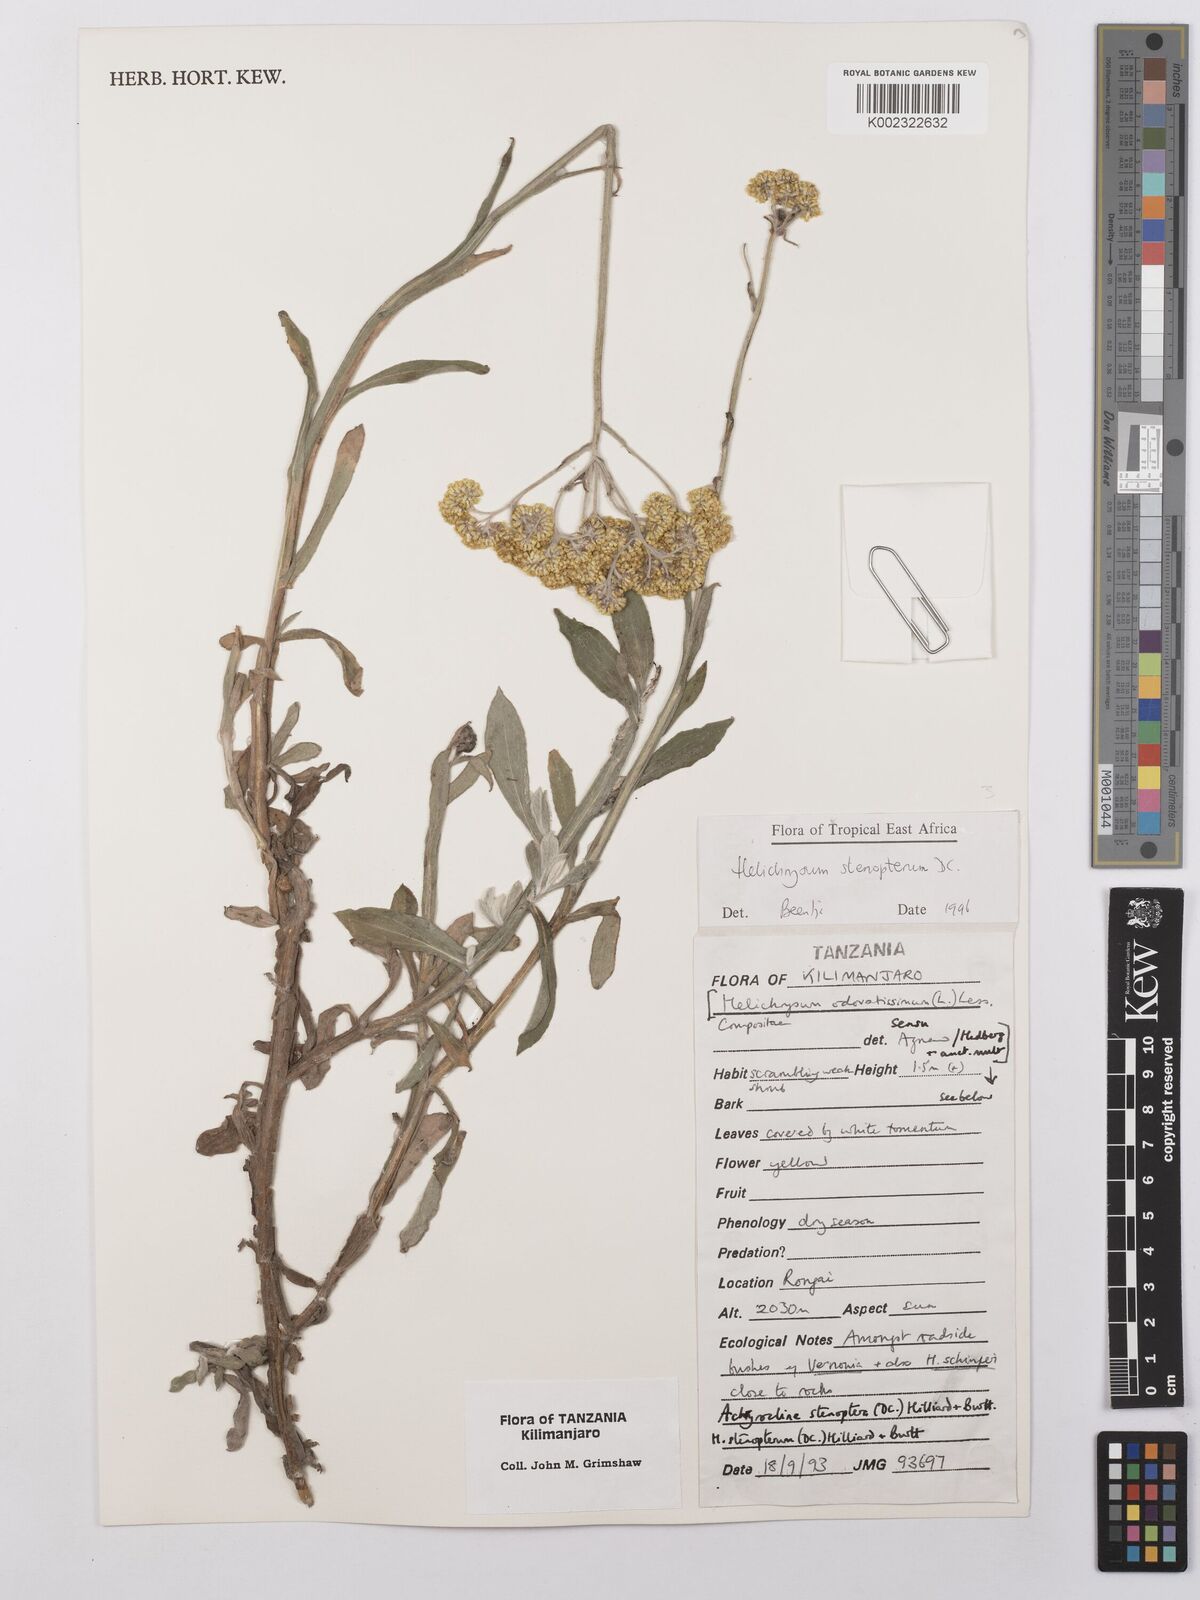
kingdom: Plantae
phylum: Tracheophyta
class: Magnoliopsida
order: Asterales
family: Asteraceae
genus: Helichrysum
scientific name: Helichrysum stenopterum
